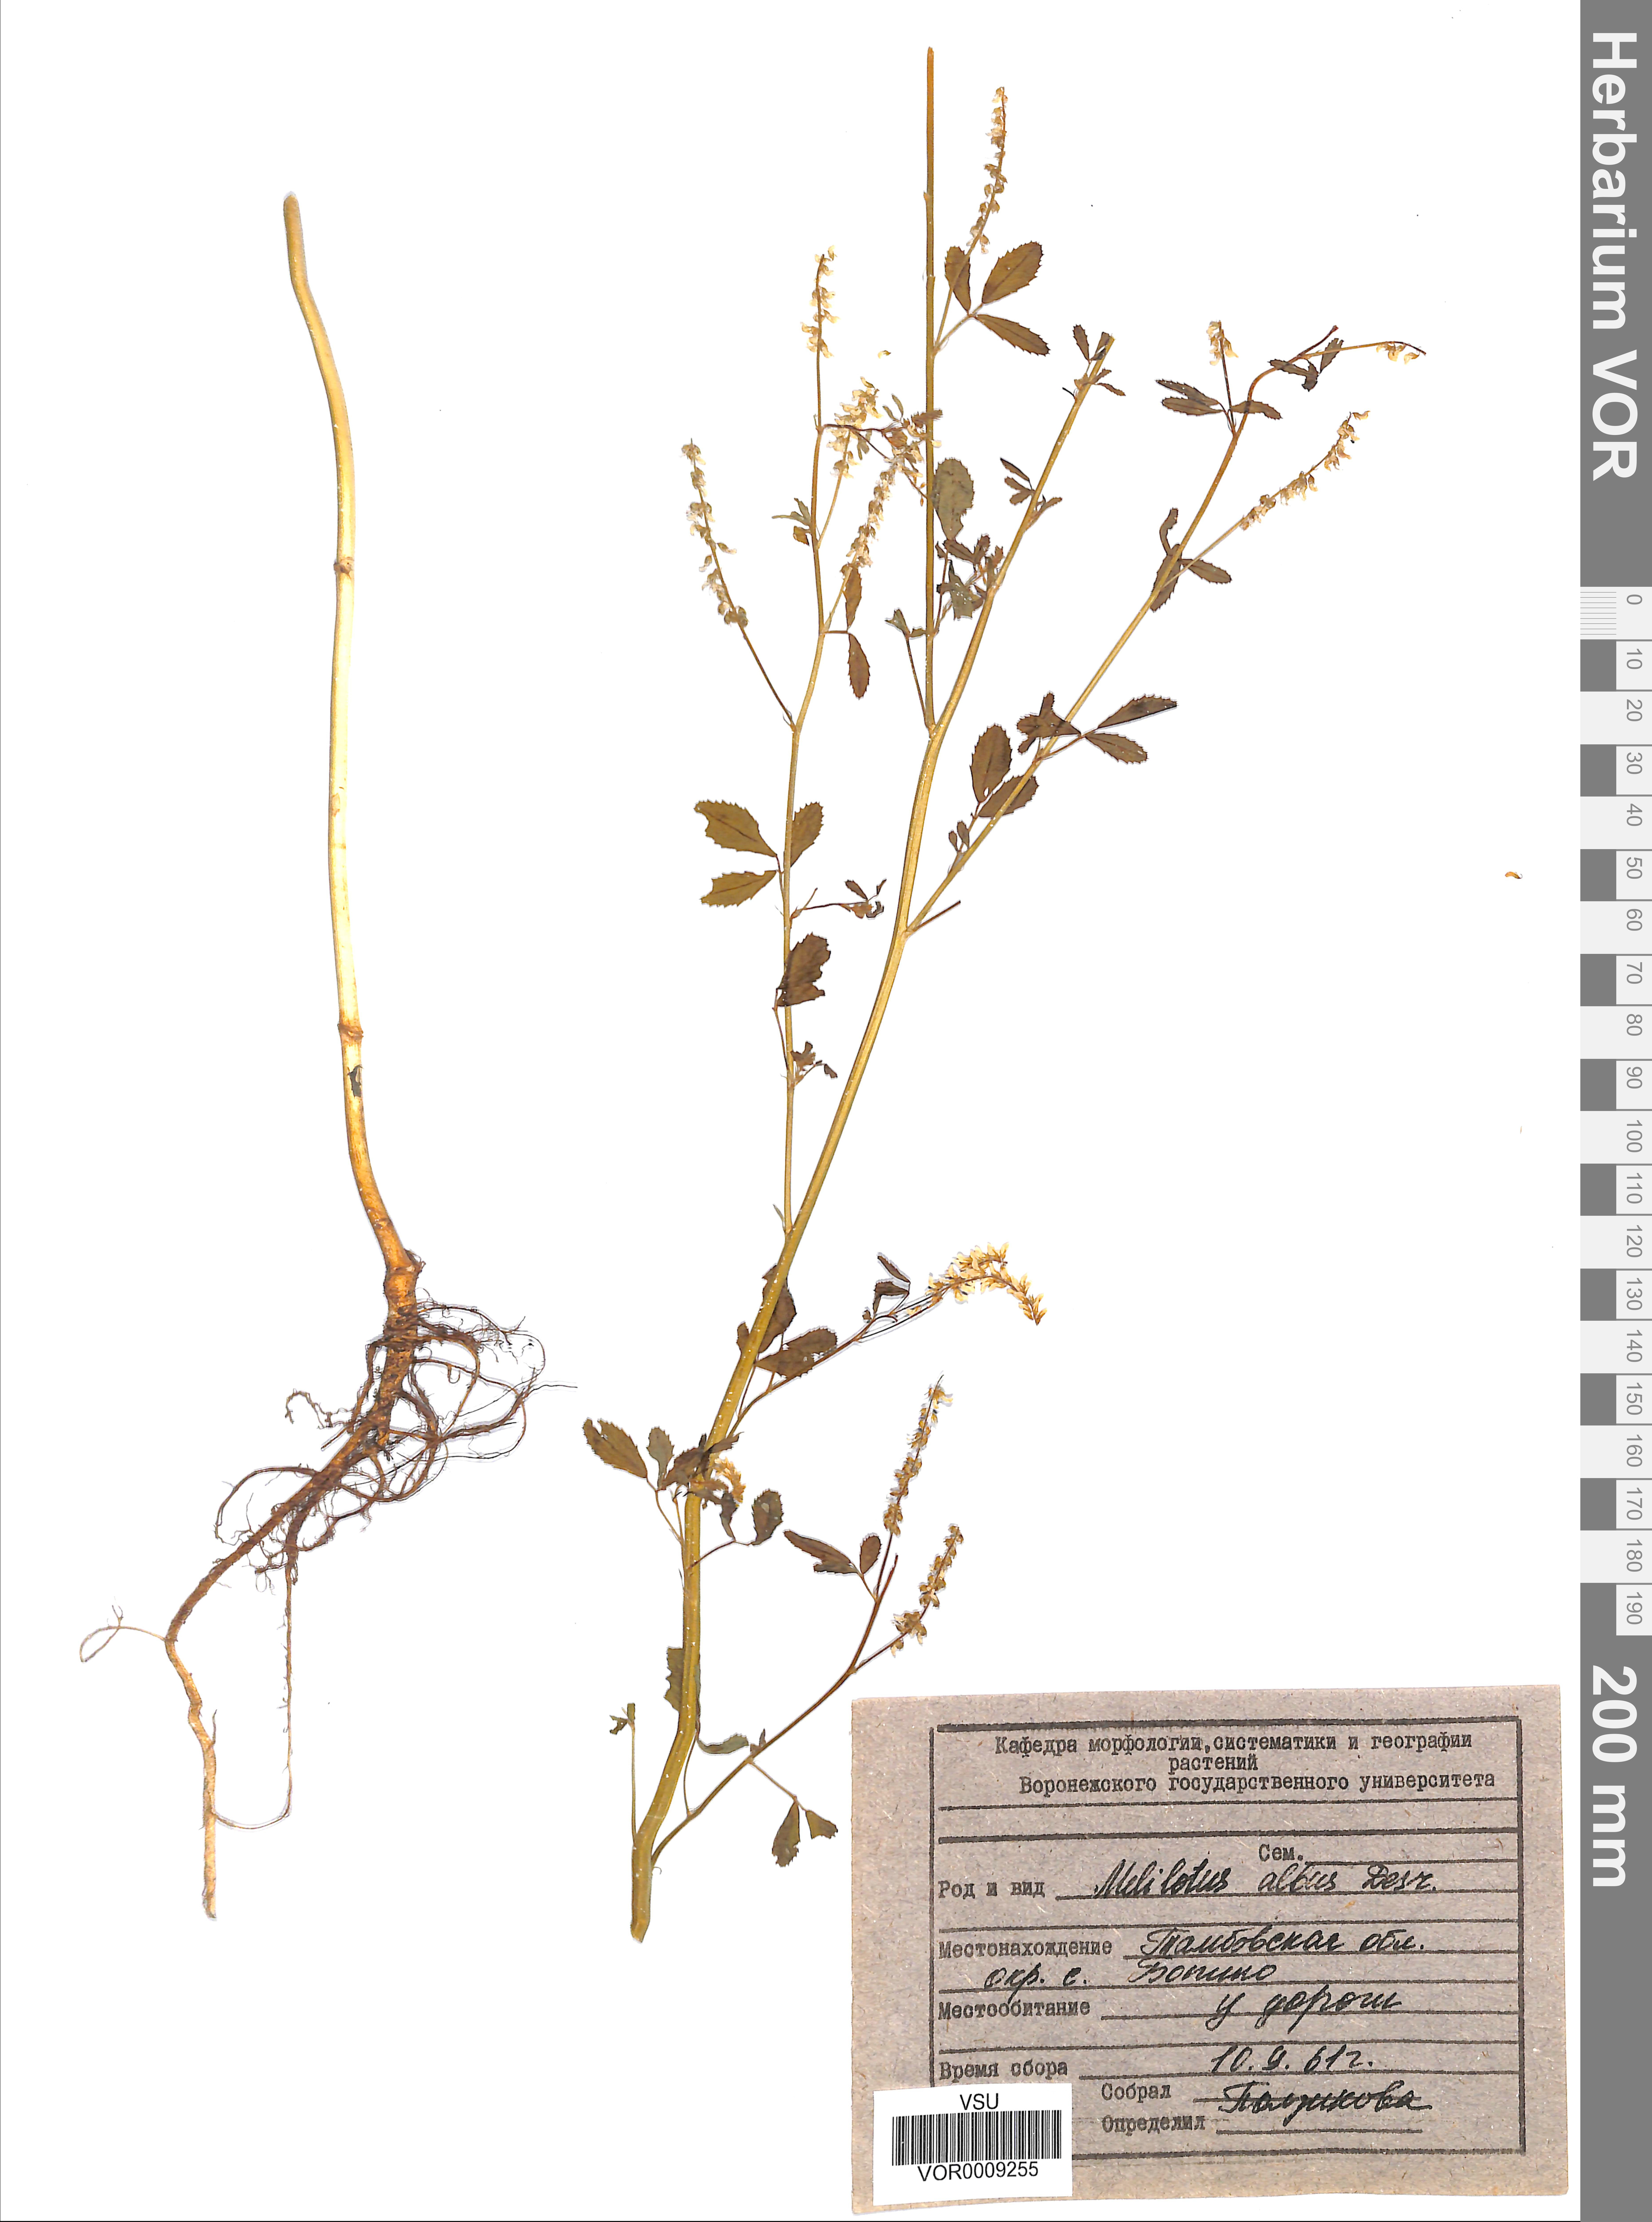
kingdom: Plantae
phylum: Tracheophyta
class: Magnoliopsida
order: Fabales
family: Fabaceae
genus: Melilotus
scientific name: Melilotus albus
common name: White melilot
